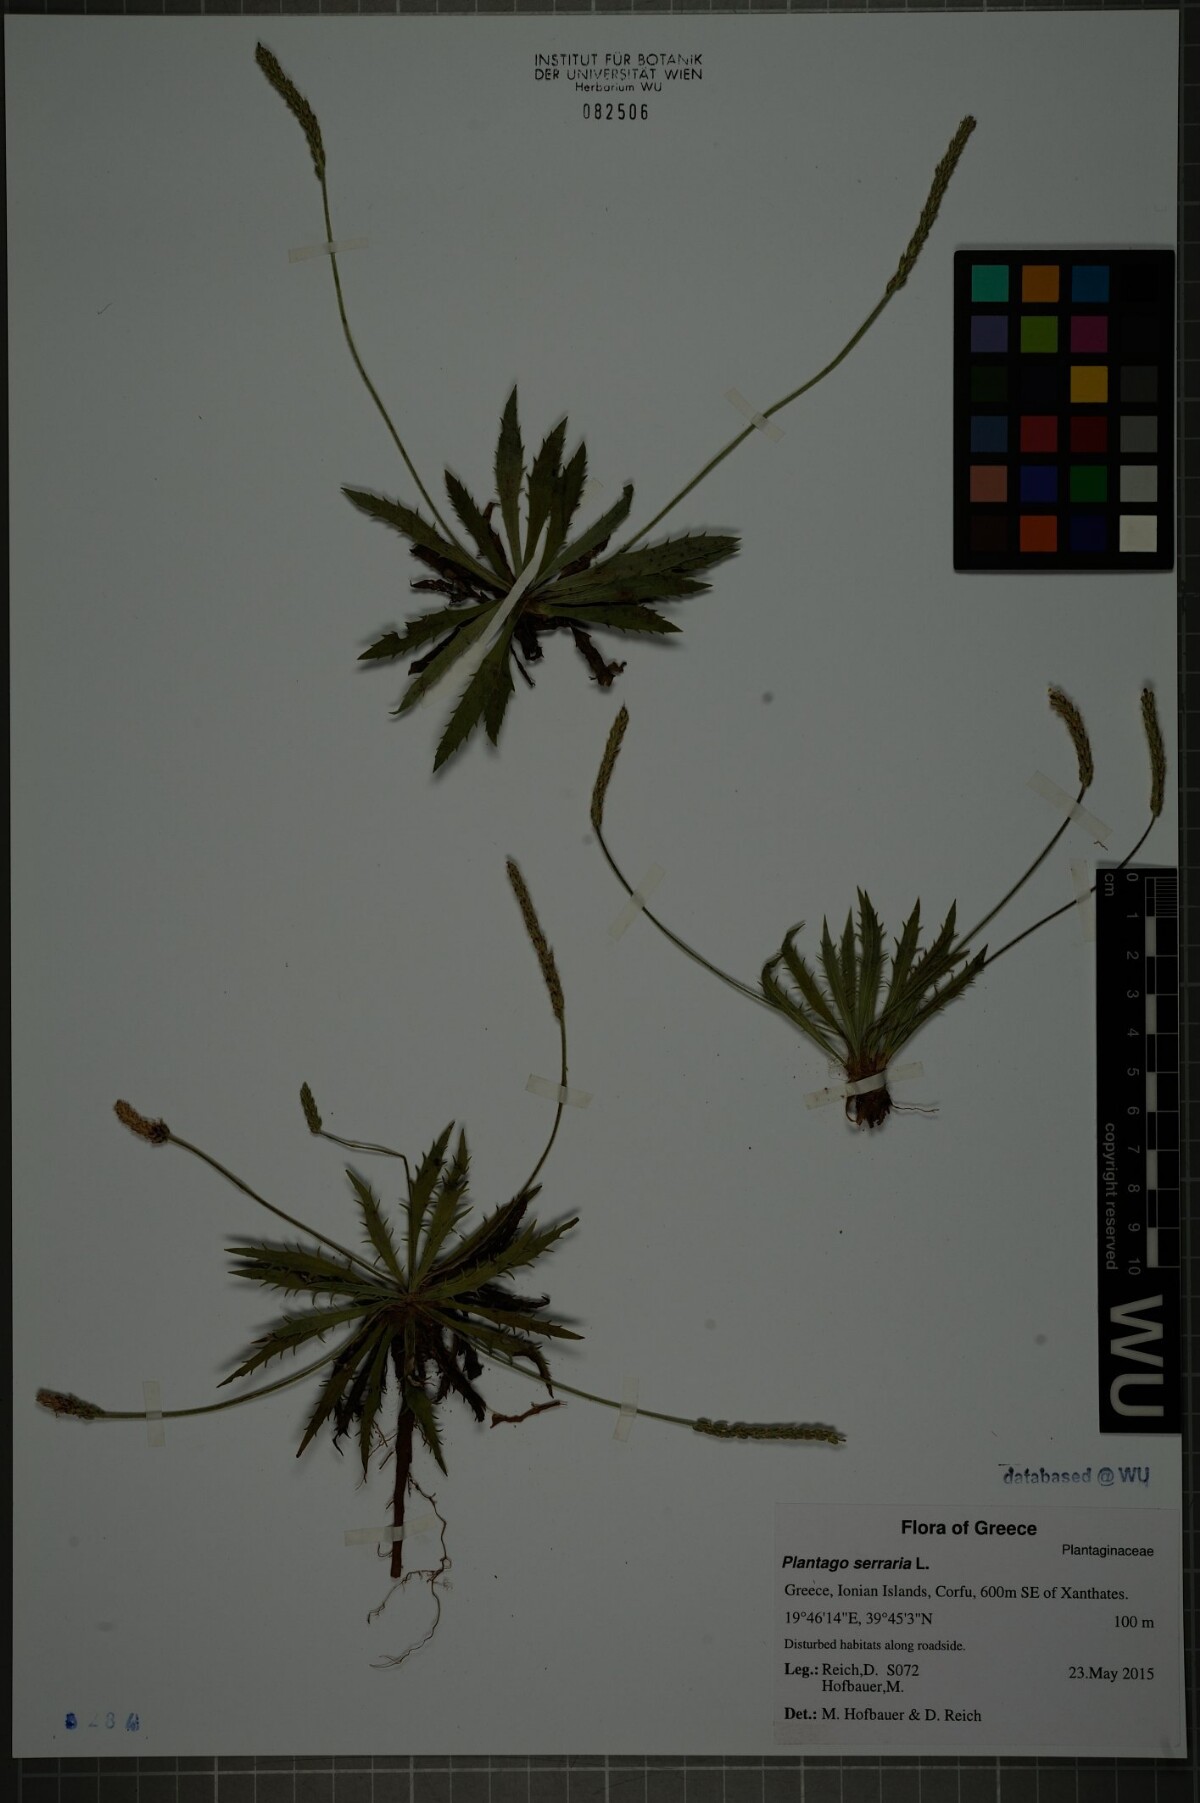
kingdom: Plantae
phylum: Tracheophyta
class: Magnoliopsida
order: Lamiales
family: Plantaginaceae
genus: Plantago
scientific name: Plantago serraria
